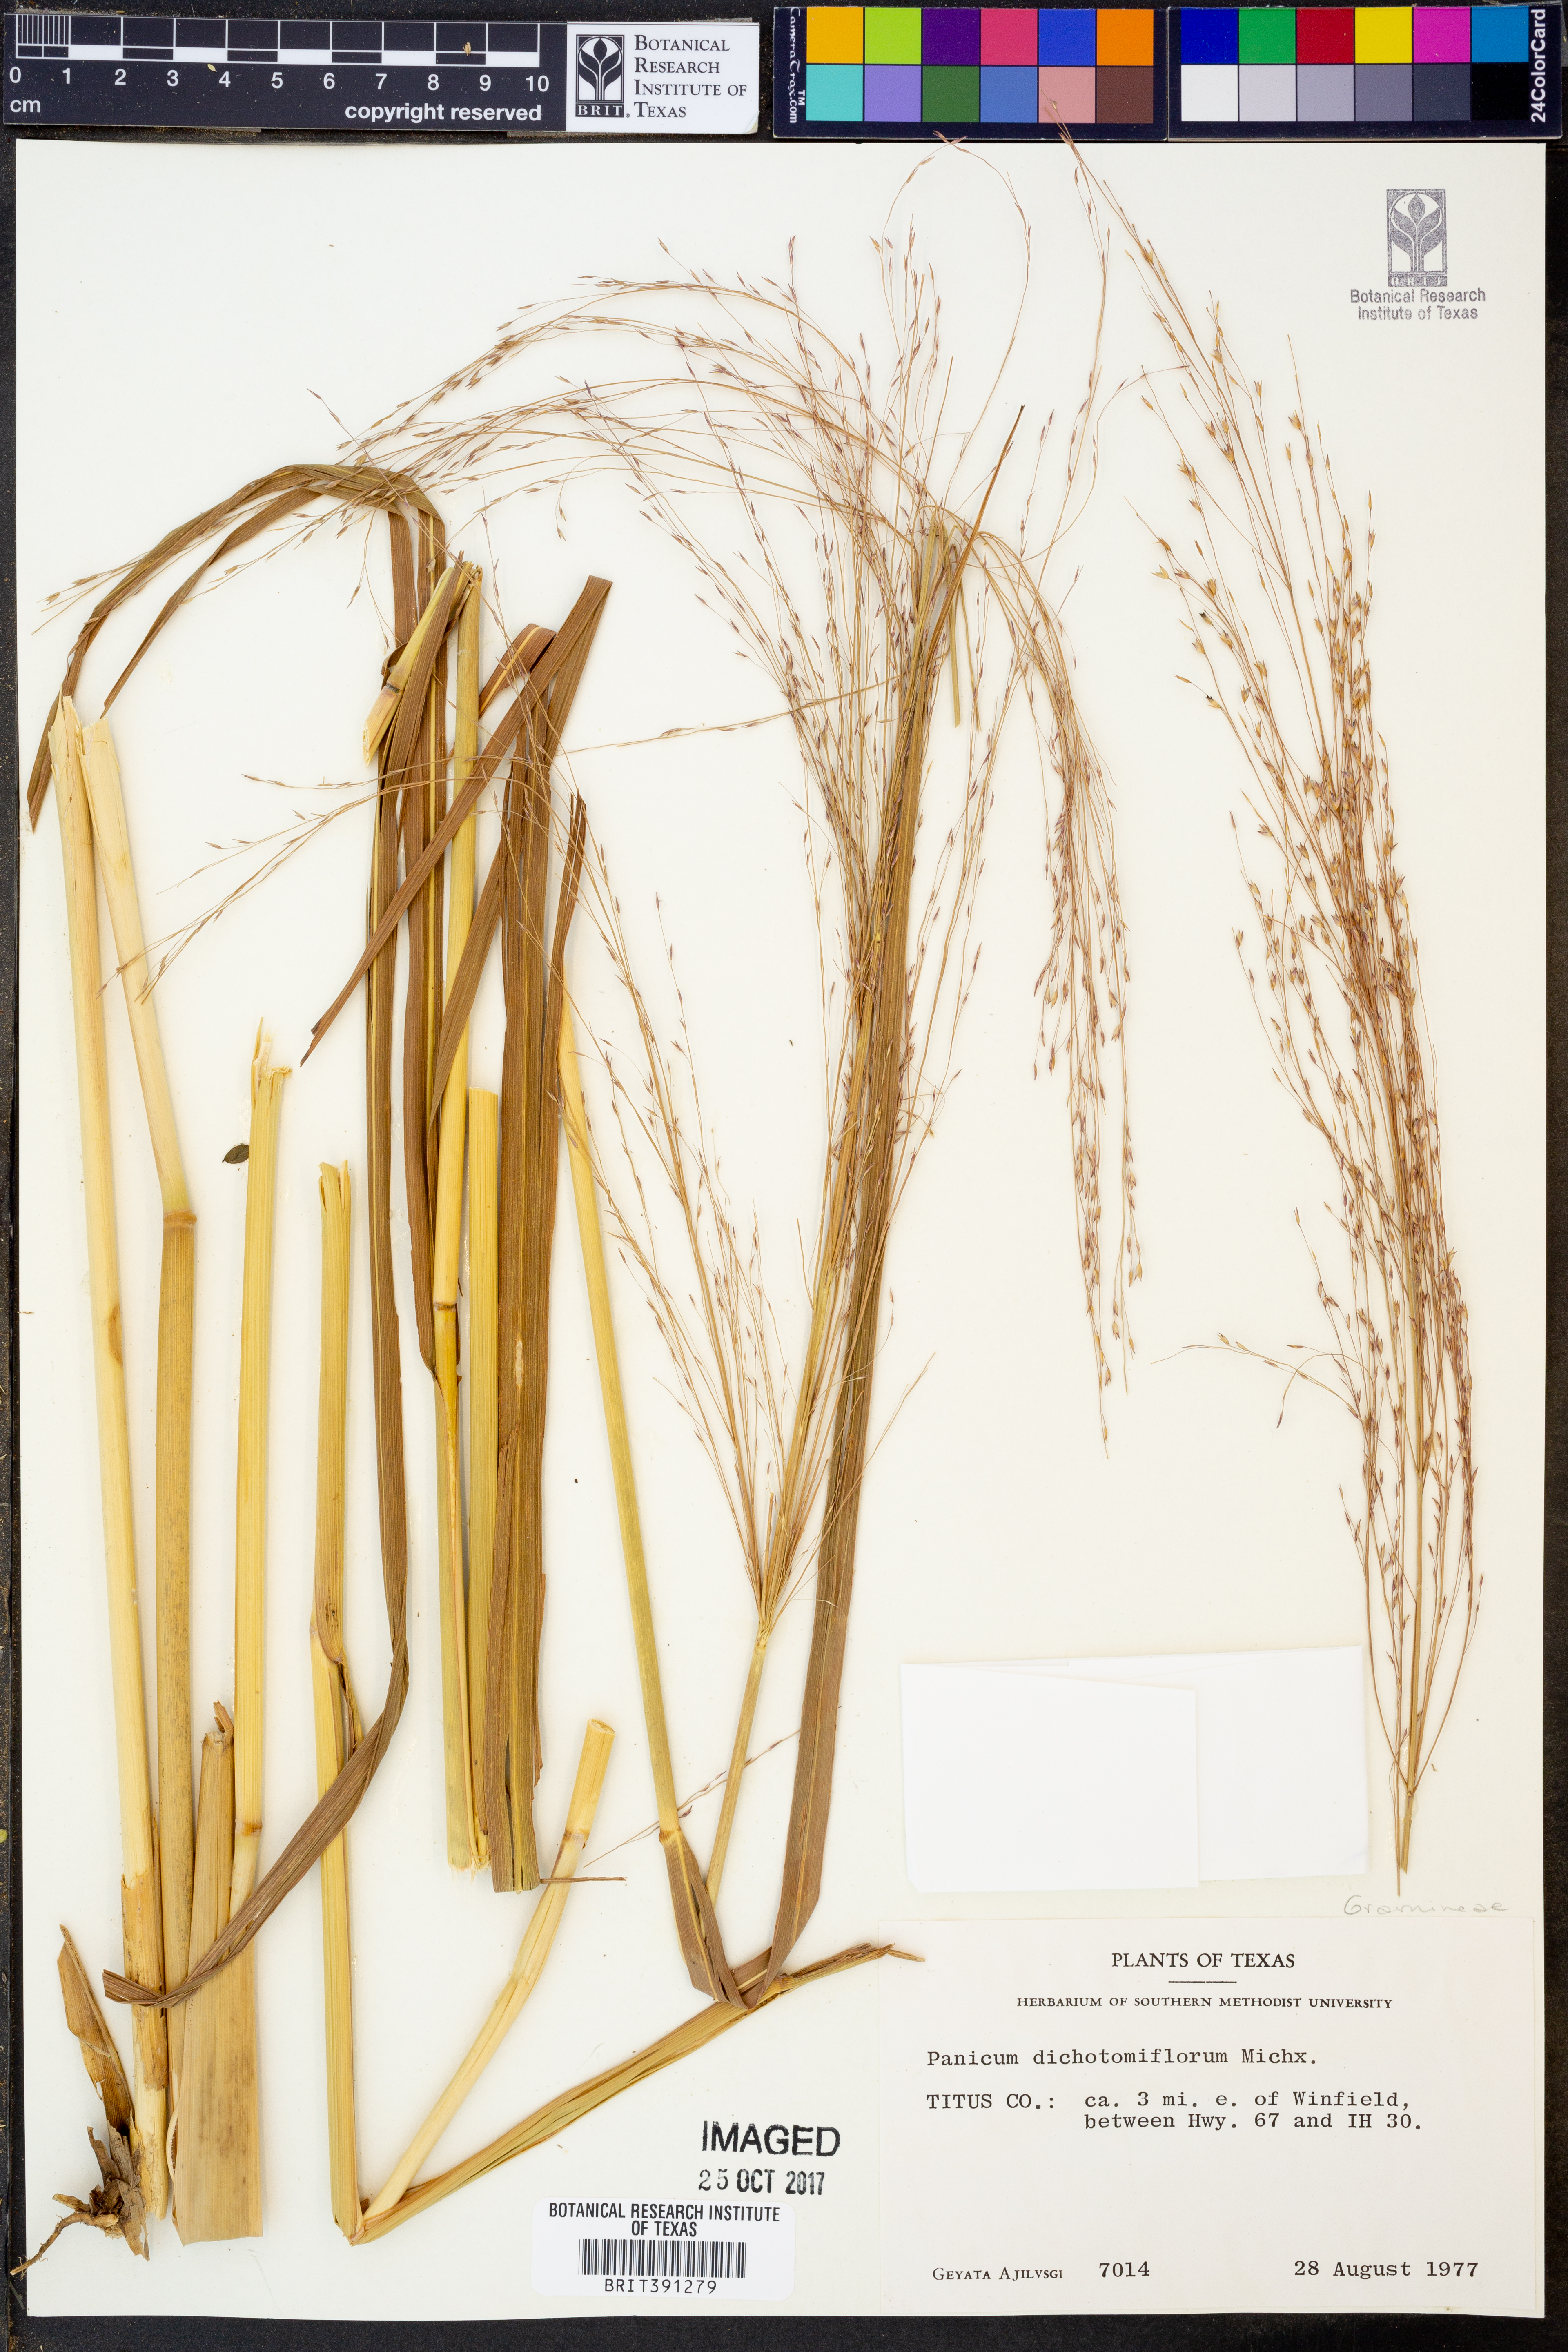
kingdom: Plantae
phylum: Tracheophyta
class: Liliopsida
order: Poales
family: Poaceae
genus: Panicum
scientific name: Panicum dichotomiflorum
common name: Autumn millet
